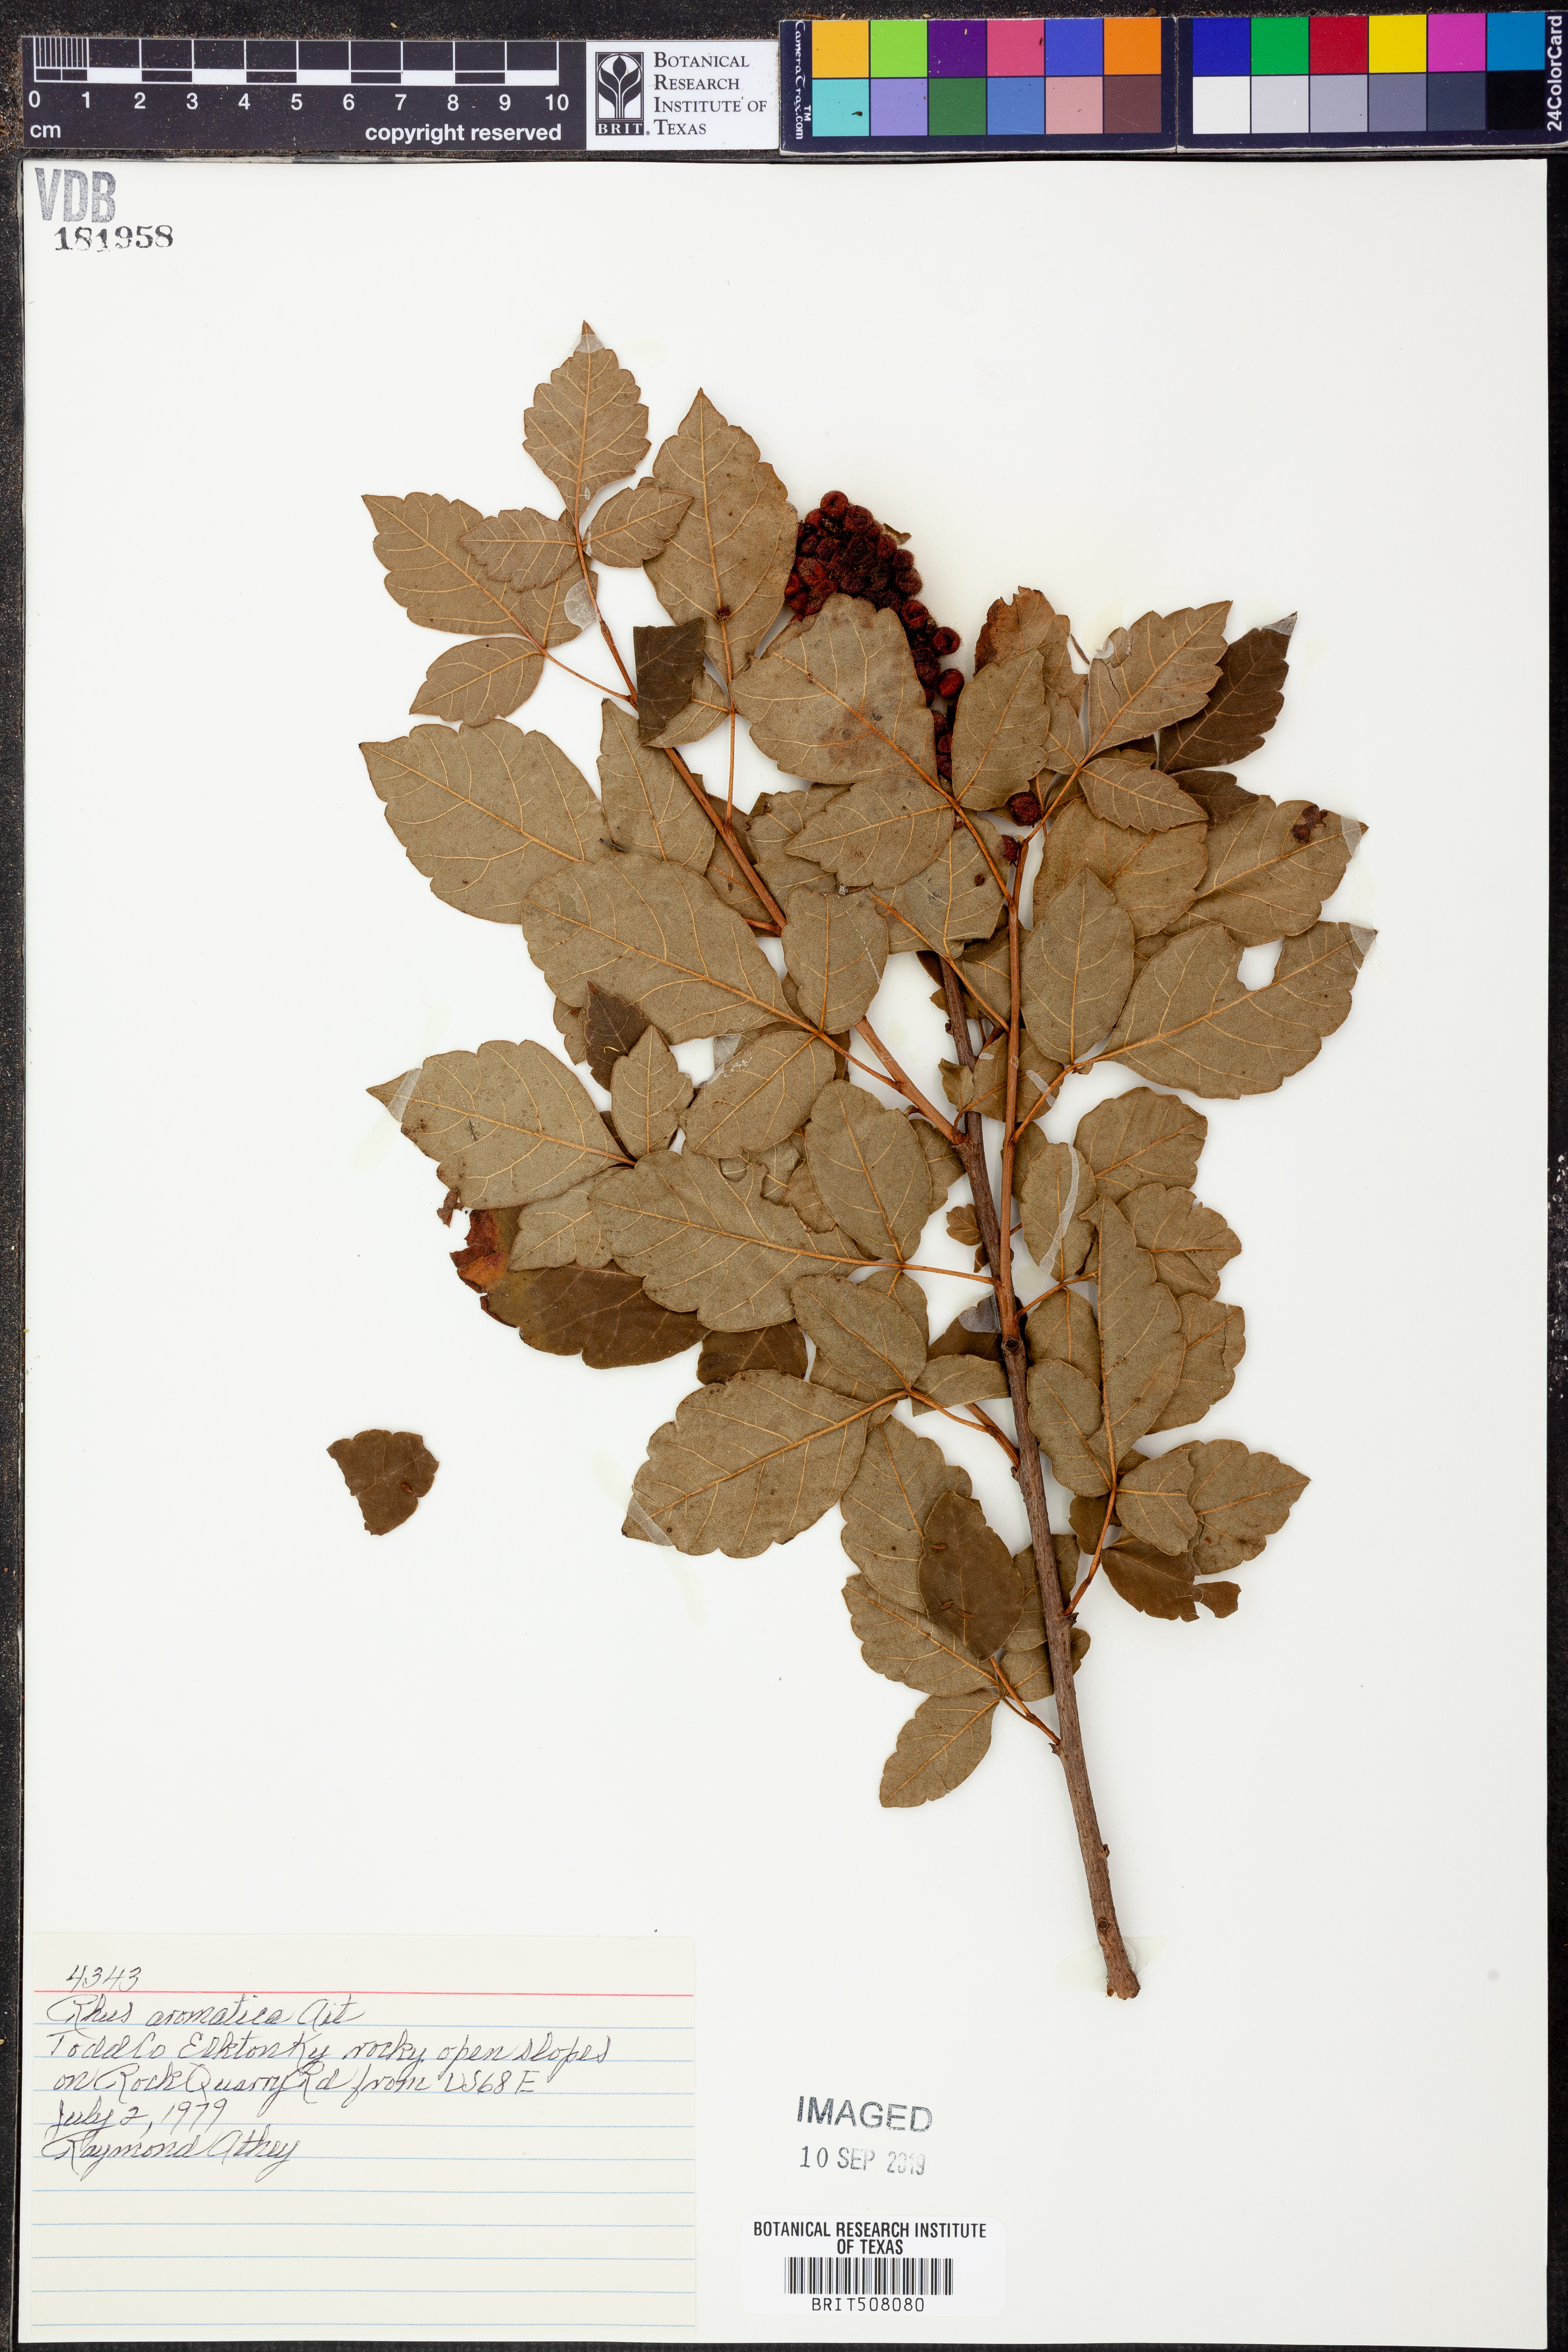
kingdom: Plantae
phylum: Tracheophyta
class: Magnoliopsida
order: Sapindales
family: Anacardiaceae
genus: Rhus
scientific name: Rhus aromatica
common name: Aromatic sumac
